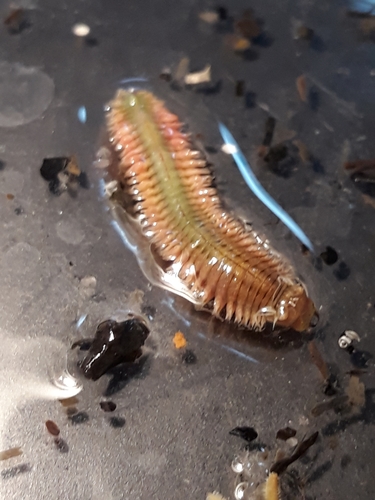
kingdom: Animalia
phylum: Annelida
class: Polychaeta
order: Phyllodocida
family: Nereididae
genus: Hediste
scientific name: Hediste diversicolor
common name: Estuary ragworm
